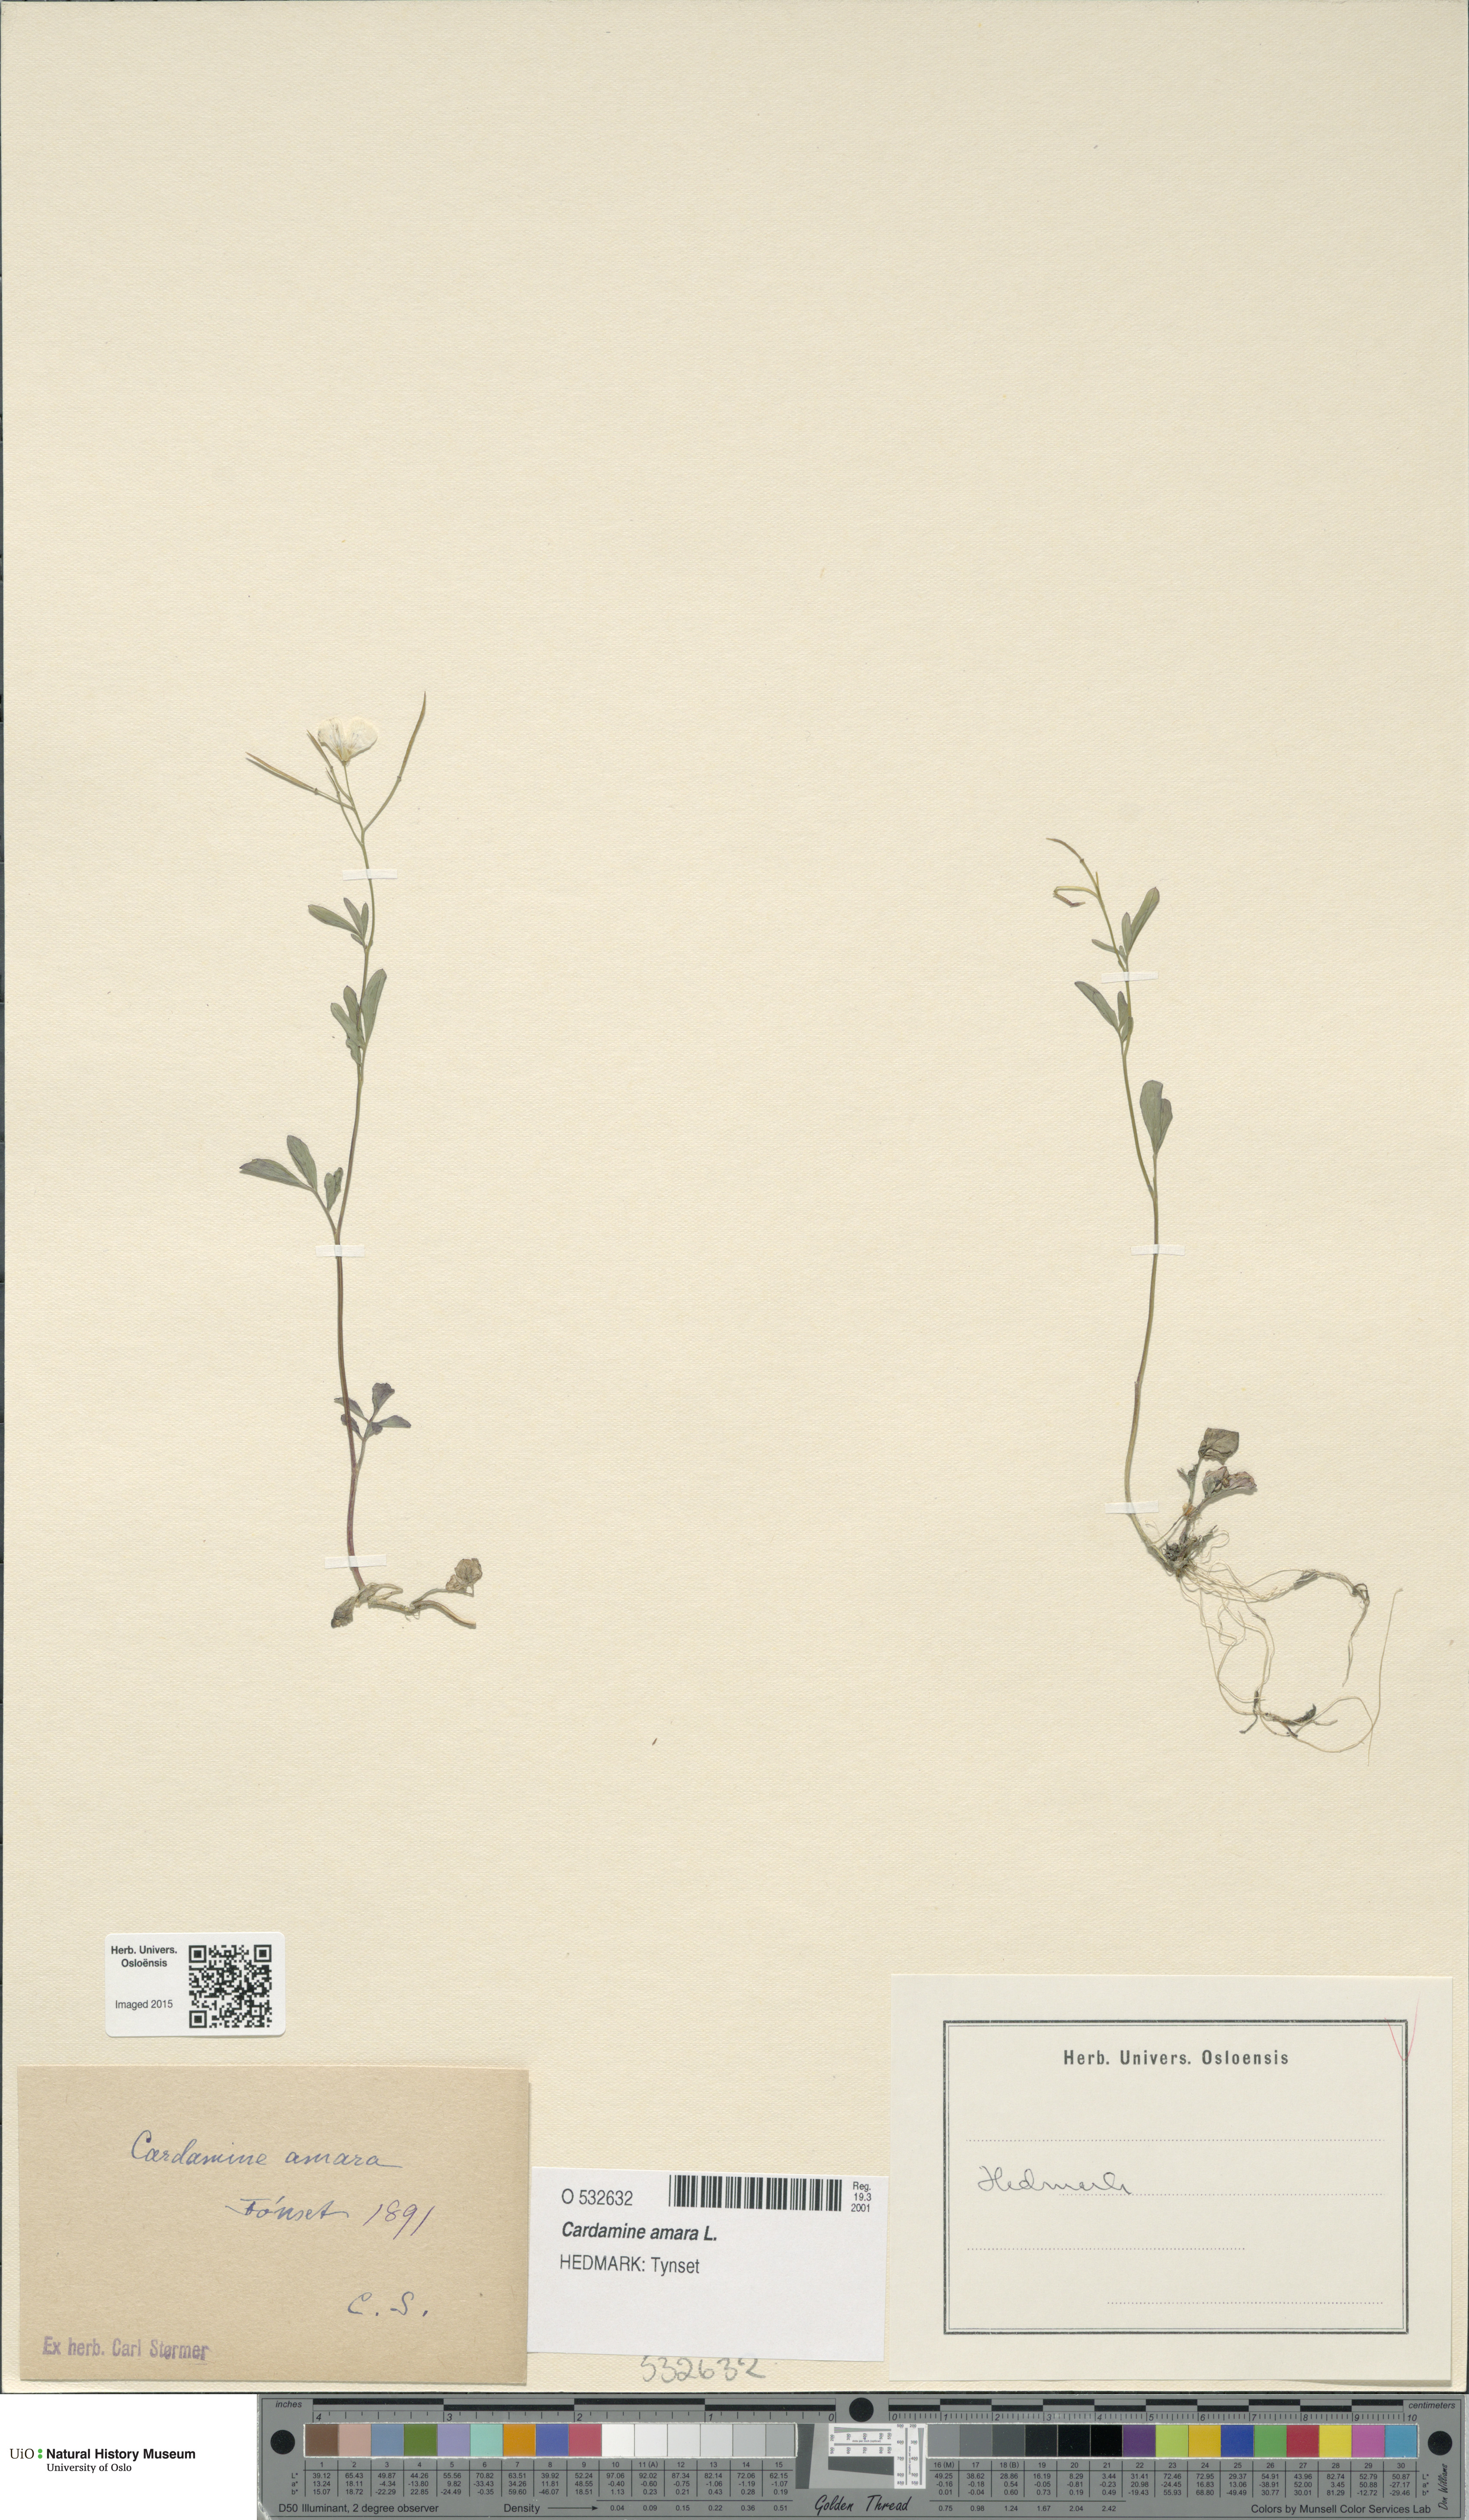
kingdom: Plantae
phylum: Tracheophyta
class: Magnoliopsida
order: Brassicales
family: Brassicaceae
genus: Cardamine
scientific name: Cardamine amara
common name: Large bitter-cress
